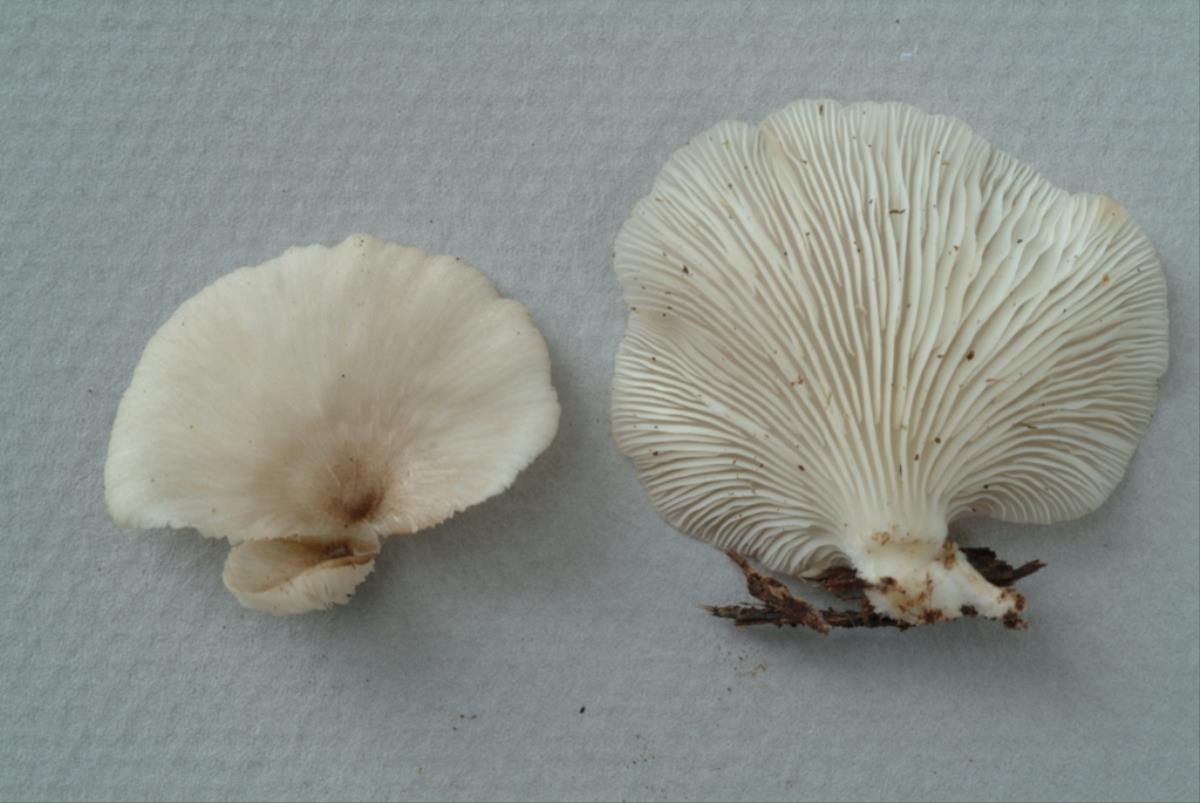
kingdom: Fungi
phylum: Basidiomycota
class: Agaricomycetes
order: Agaricales
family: Pleurotaceae
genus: Pleurotus
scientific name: Pleurotus djamor
